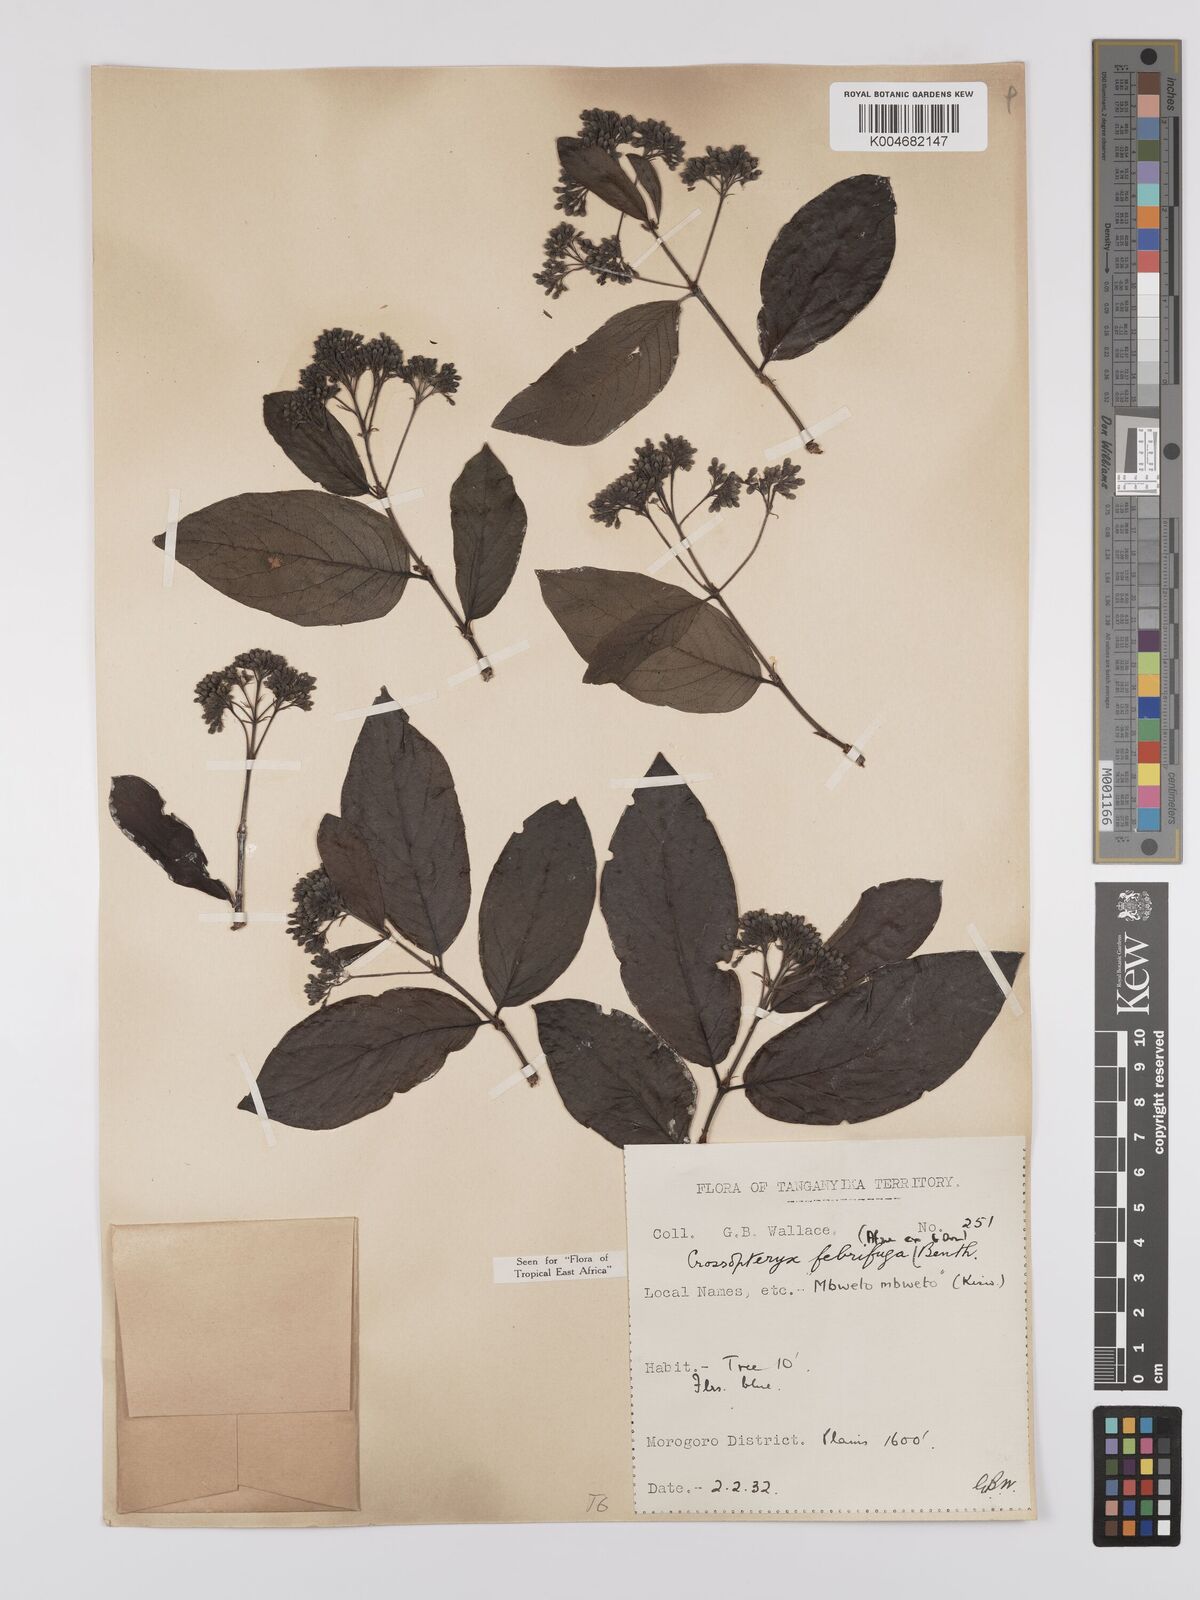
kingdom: Plantae
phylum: Tracheophyta
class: Magnoliopsida
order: Gentianales
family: Rubiaceae
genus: Crossopteryx
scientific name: Crossopteryx febrifuga
